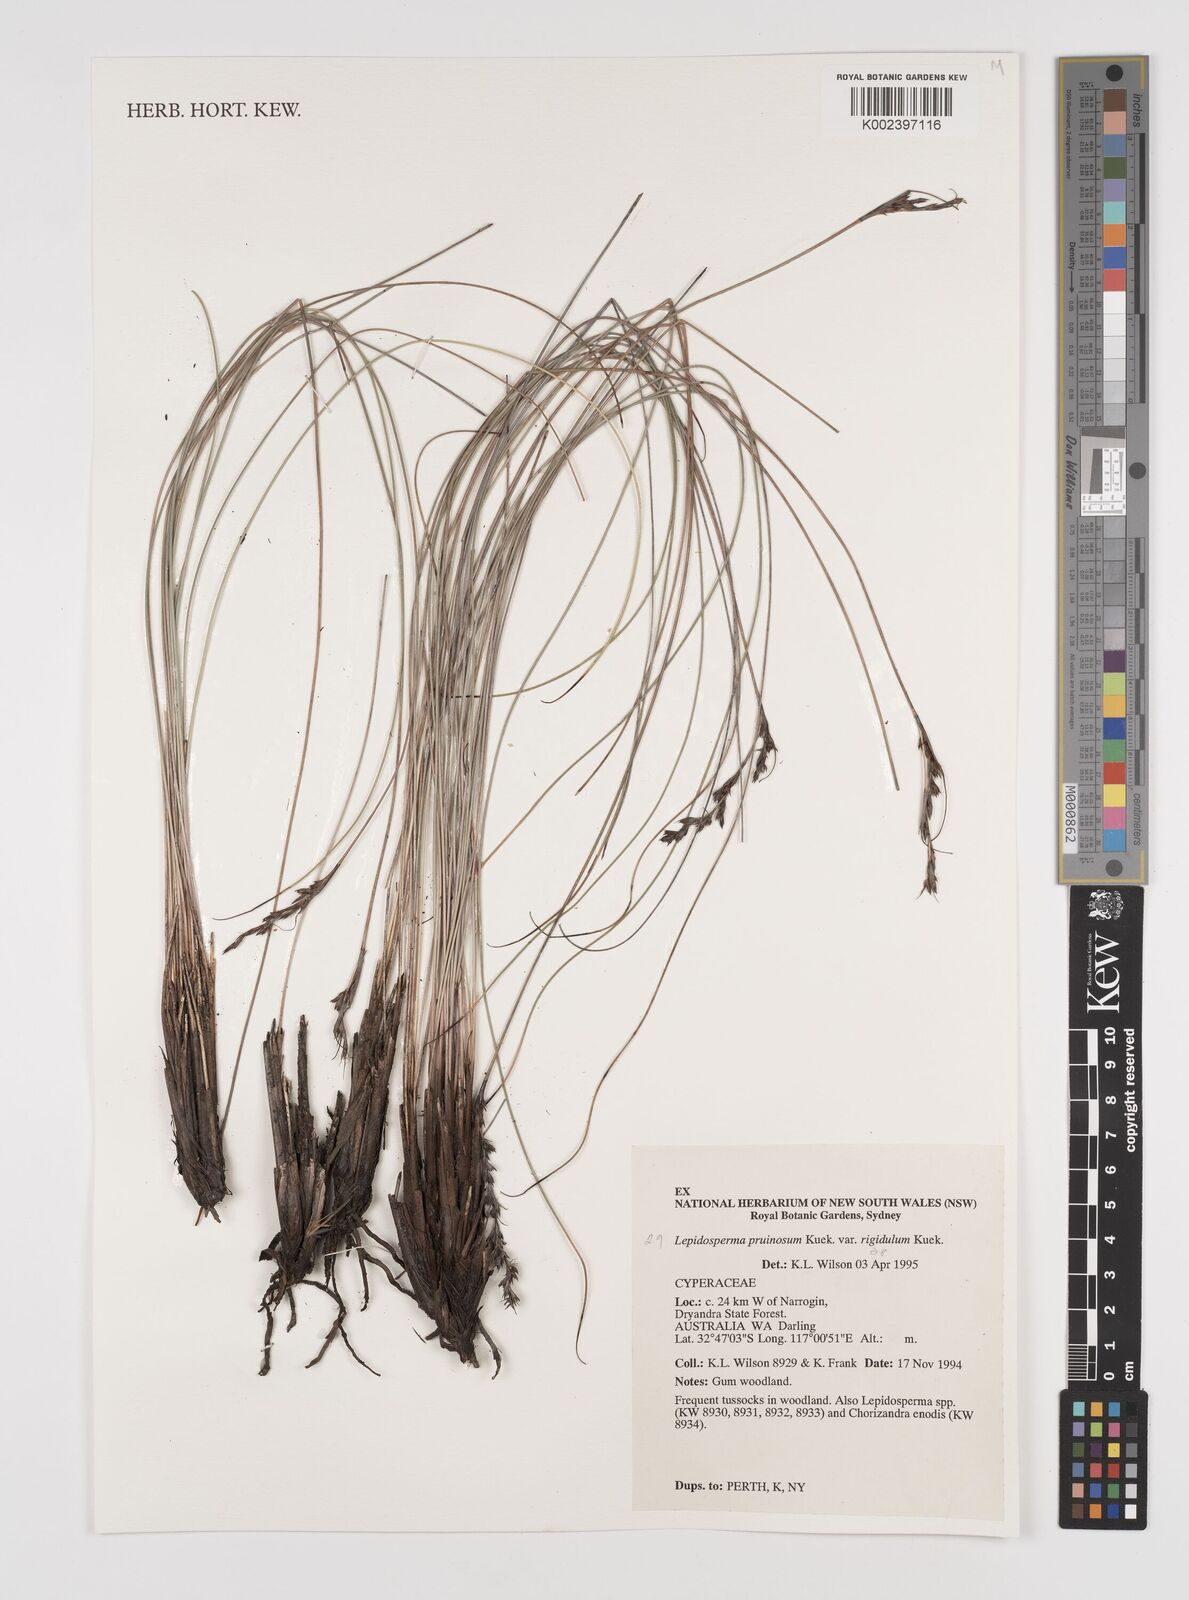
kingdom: Plantae
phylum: Tracheophyta
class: Liliopsida
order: Poales
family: Cyperaceae
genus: Lepidosperma
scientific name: Lepidosperma pruinosum
